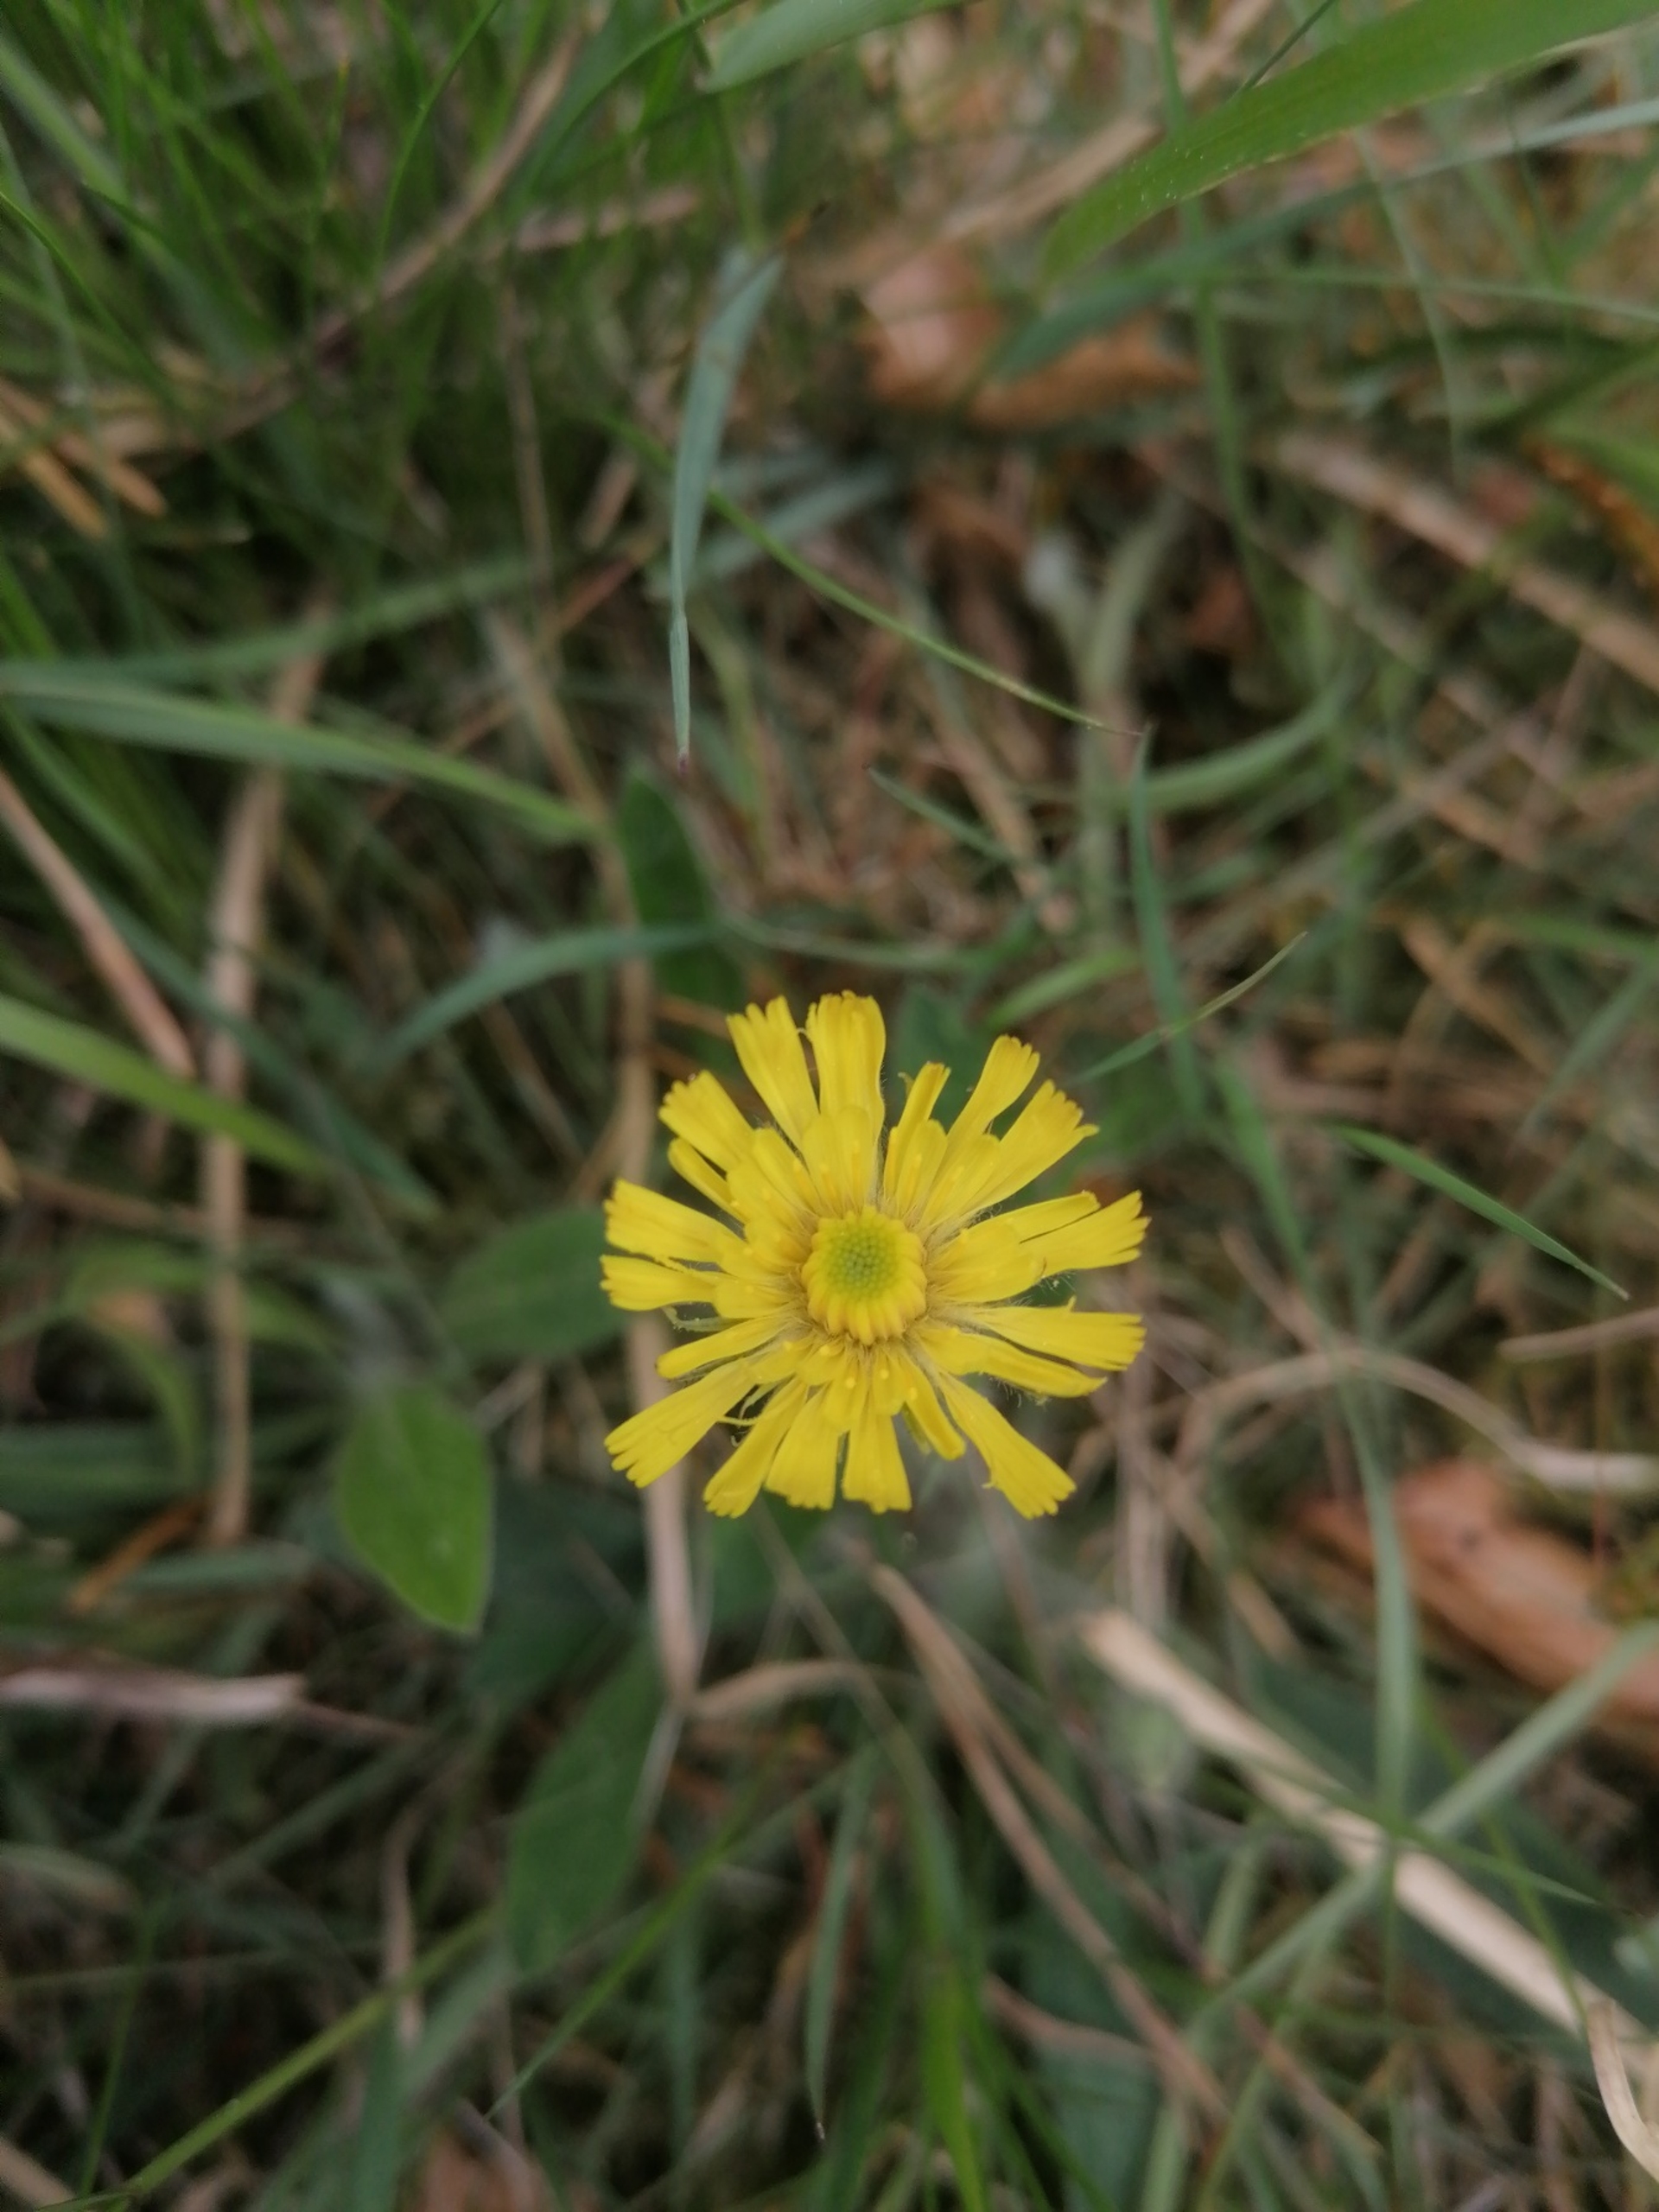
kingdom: Plantae
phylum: Tracheophyta
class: Magnoliopsida
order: Asterales
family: Asteraceae
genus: Pilosella
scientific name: Pilosella officinarum
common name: Håret høgeurt
